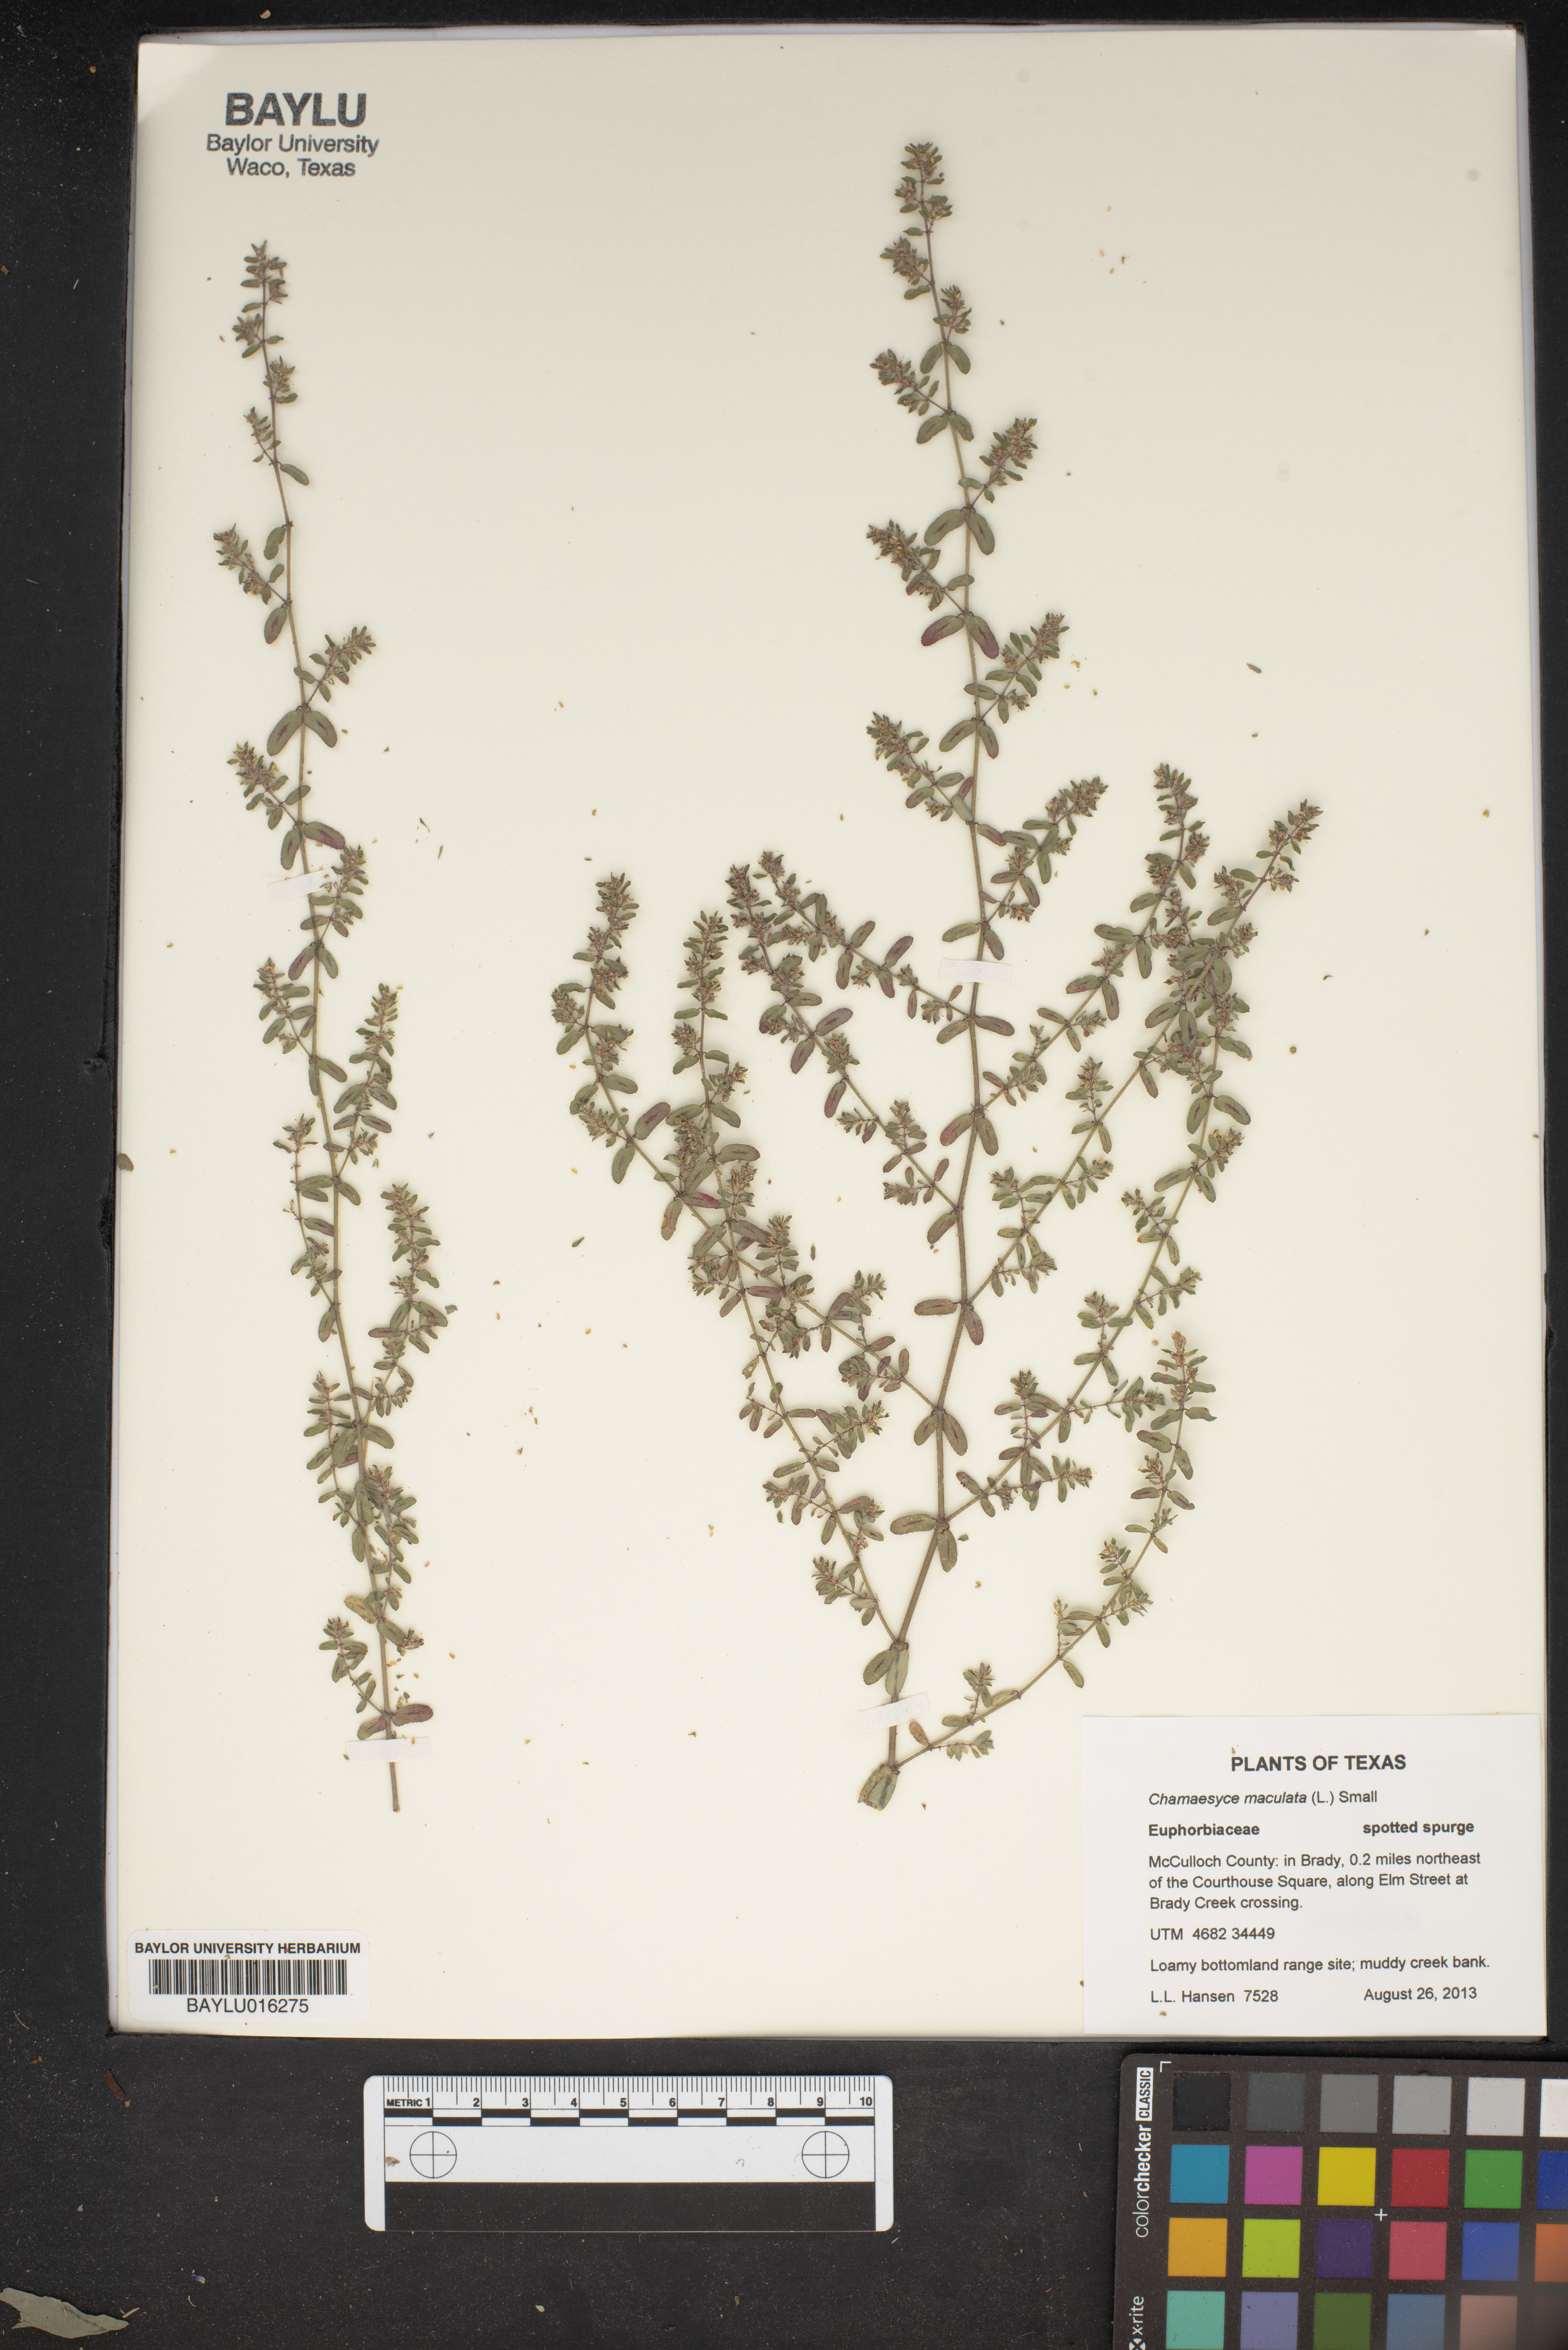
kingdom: Plantae
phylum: Tracheophyta
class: Magnoliopsida
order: Malpighiales
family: Euphorbiaceae
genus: Euphorbia
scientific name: Euphorbia maculata
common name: Spotted spurge
